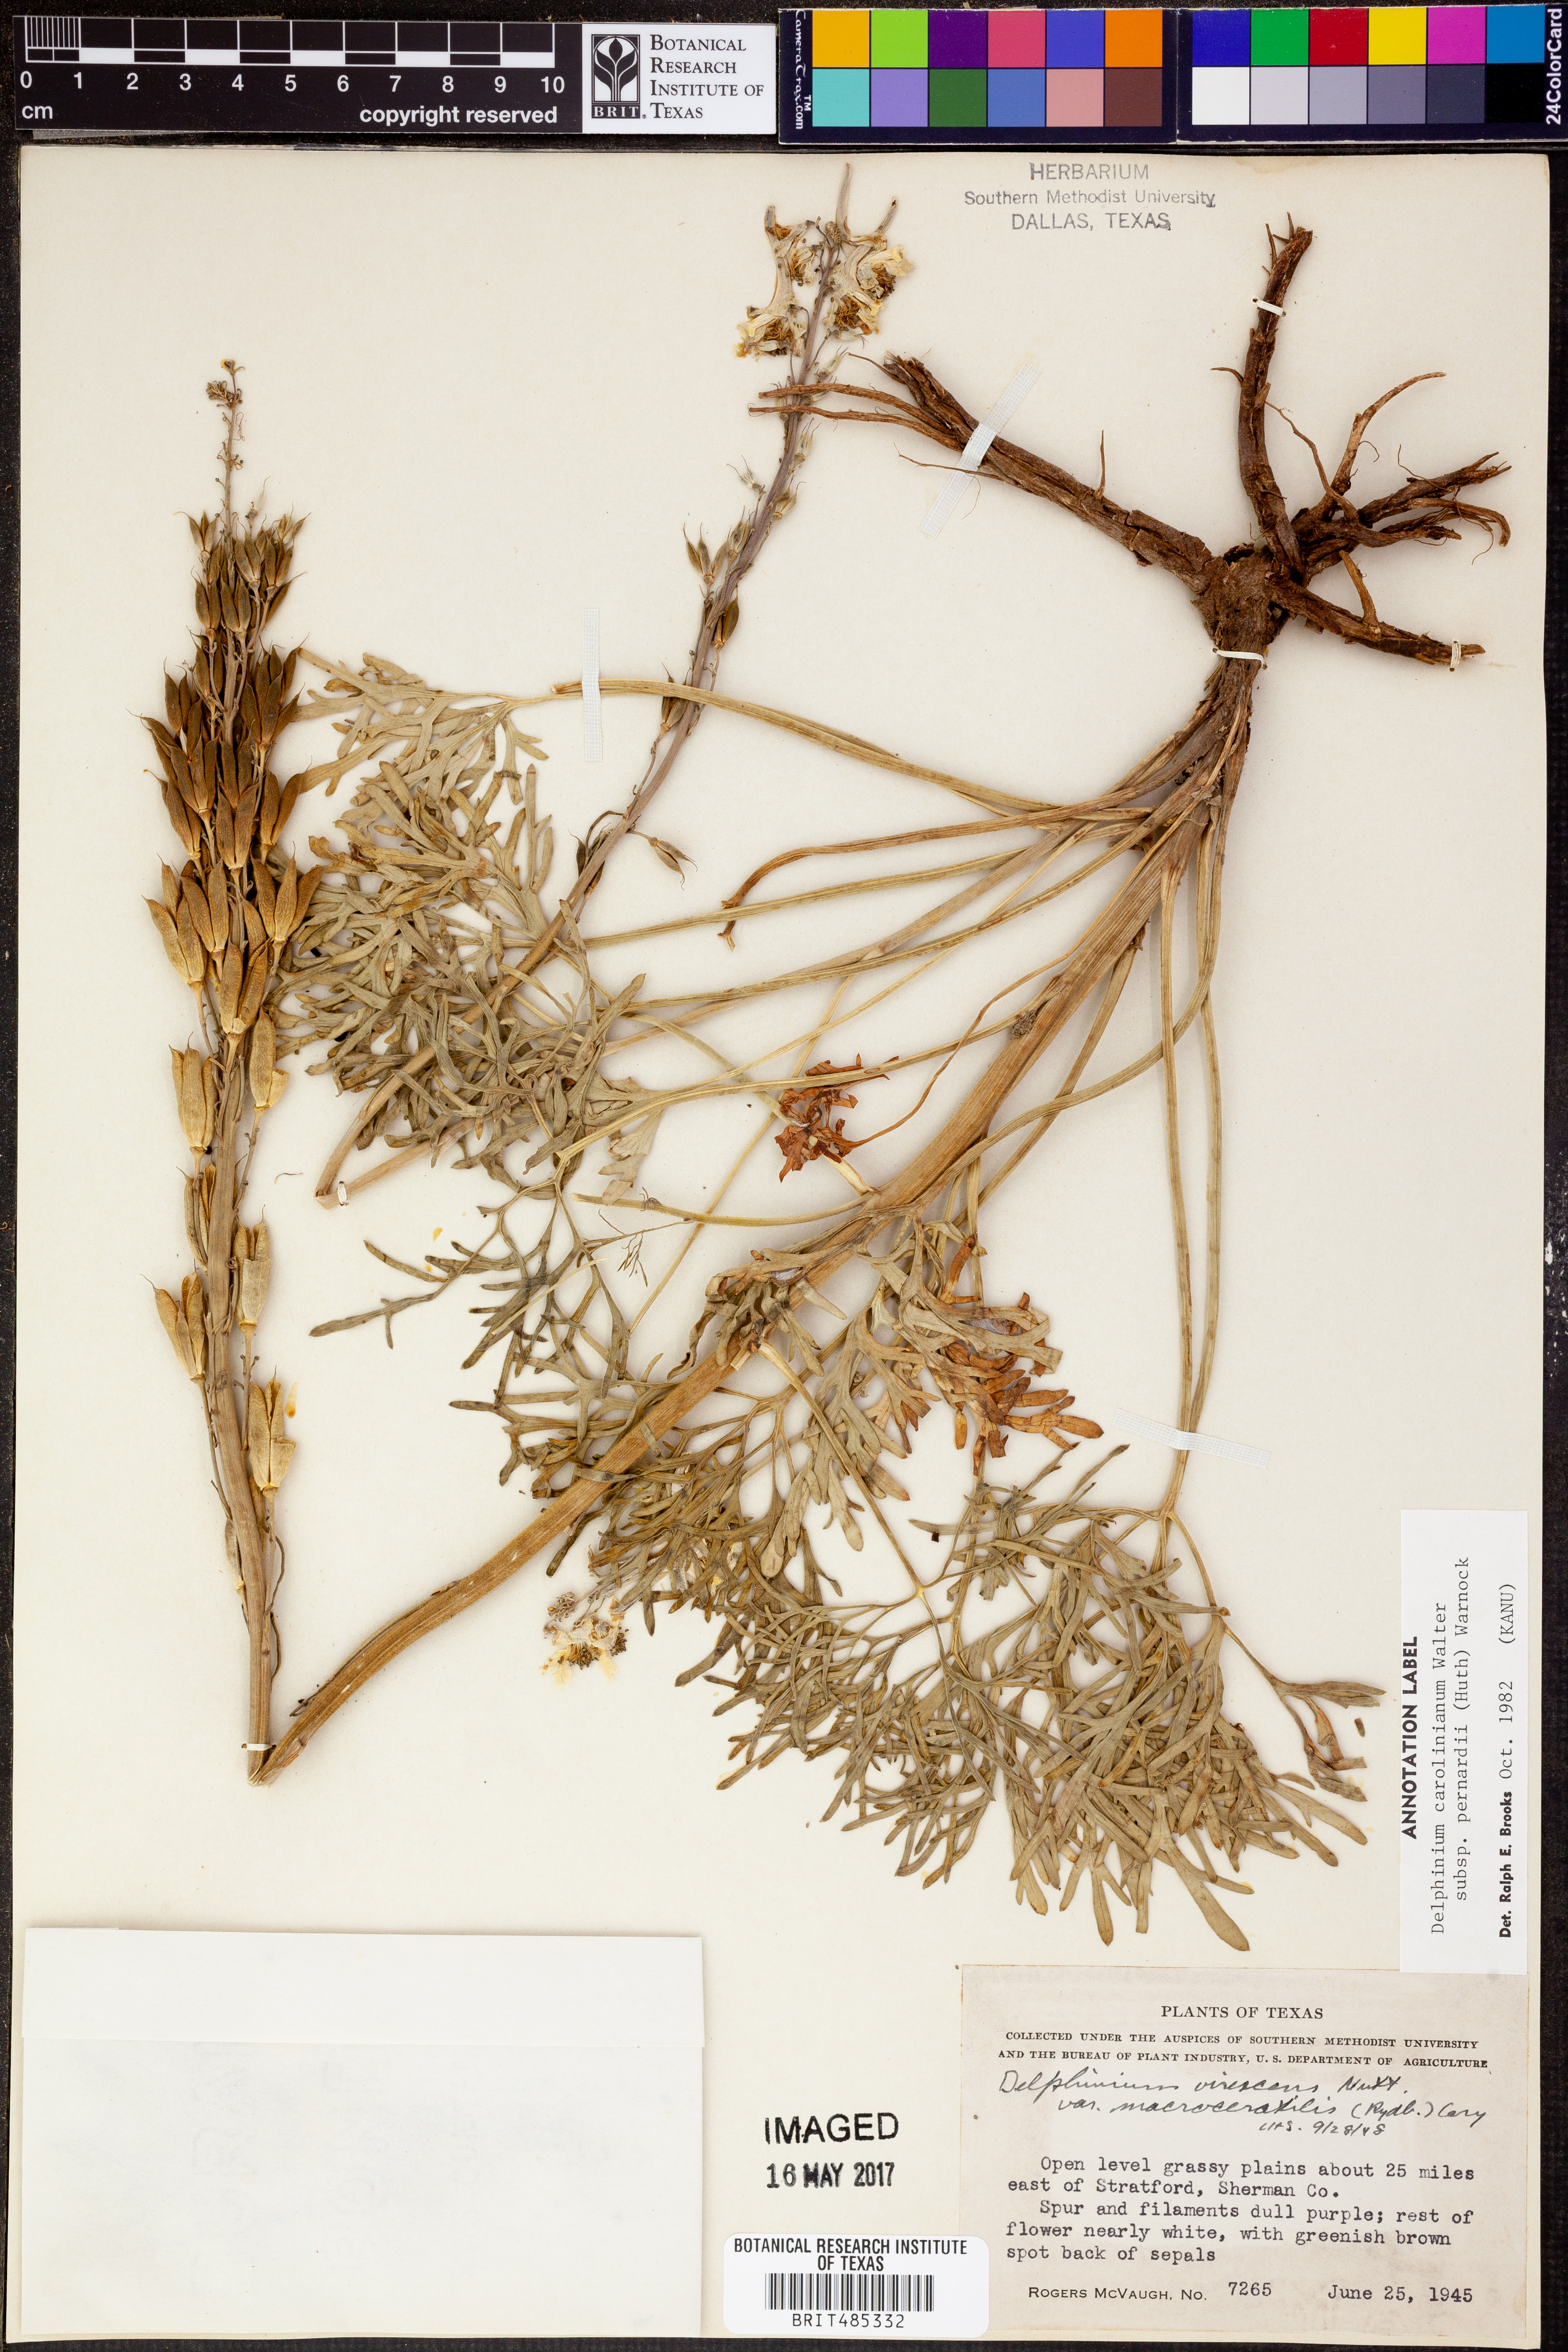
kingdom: Plantae
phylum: Tracheophyta
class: Magnoliopsida
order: Ranunculales
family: Ranunculaceae
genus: Delphinium
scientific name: Delphinium carolinianum
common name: Carolina larkspur
